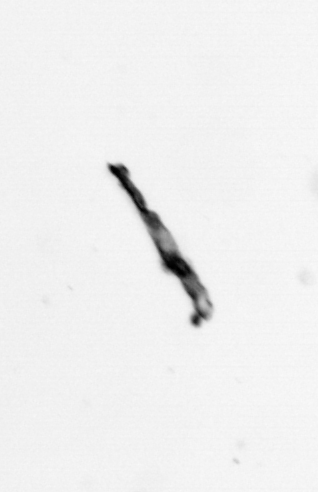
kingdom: Bacteria
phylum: Cyanobacteria
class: Cyanobacteriia
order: Cyanobacteriales
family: Microcoleaceae
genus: Trichodesmium
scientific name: Trichodesmium
